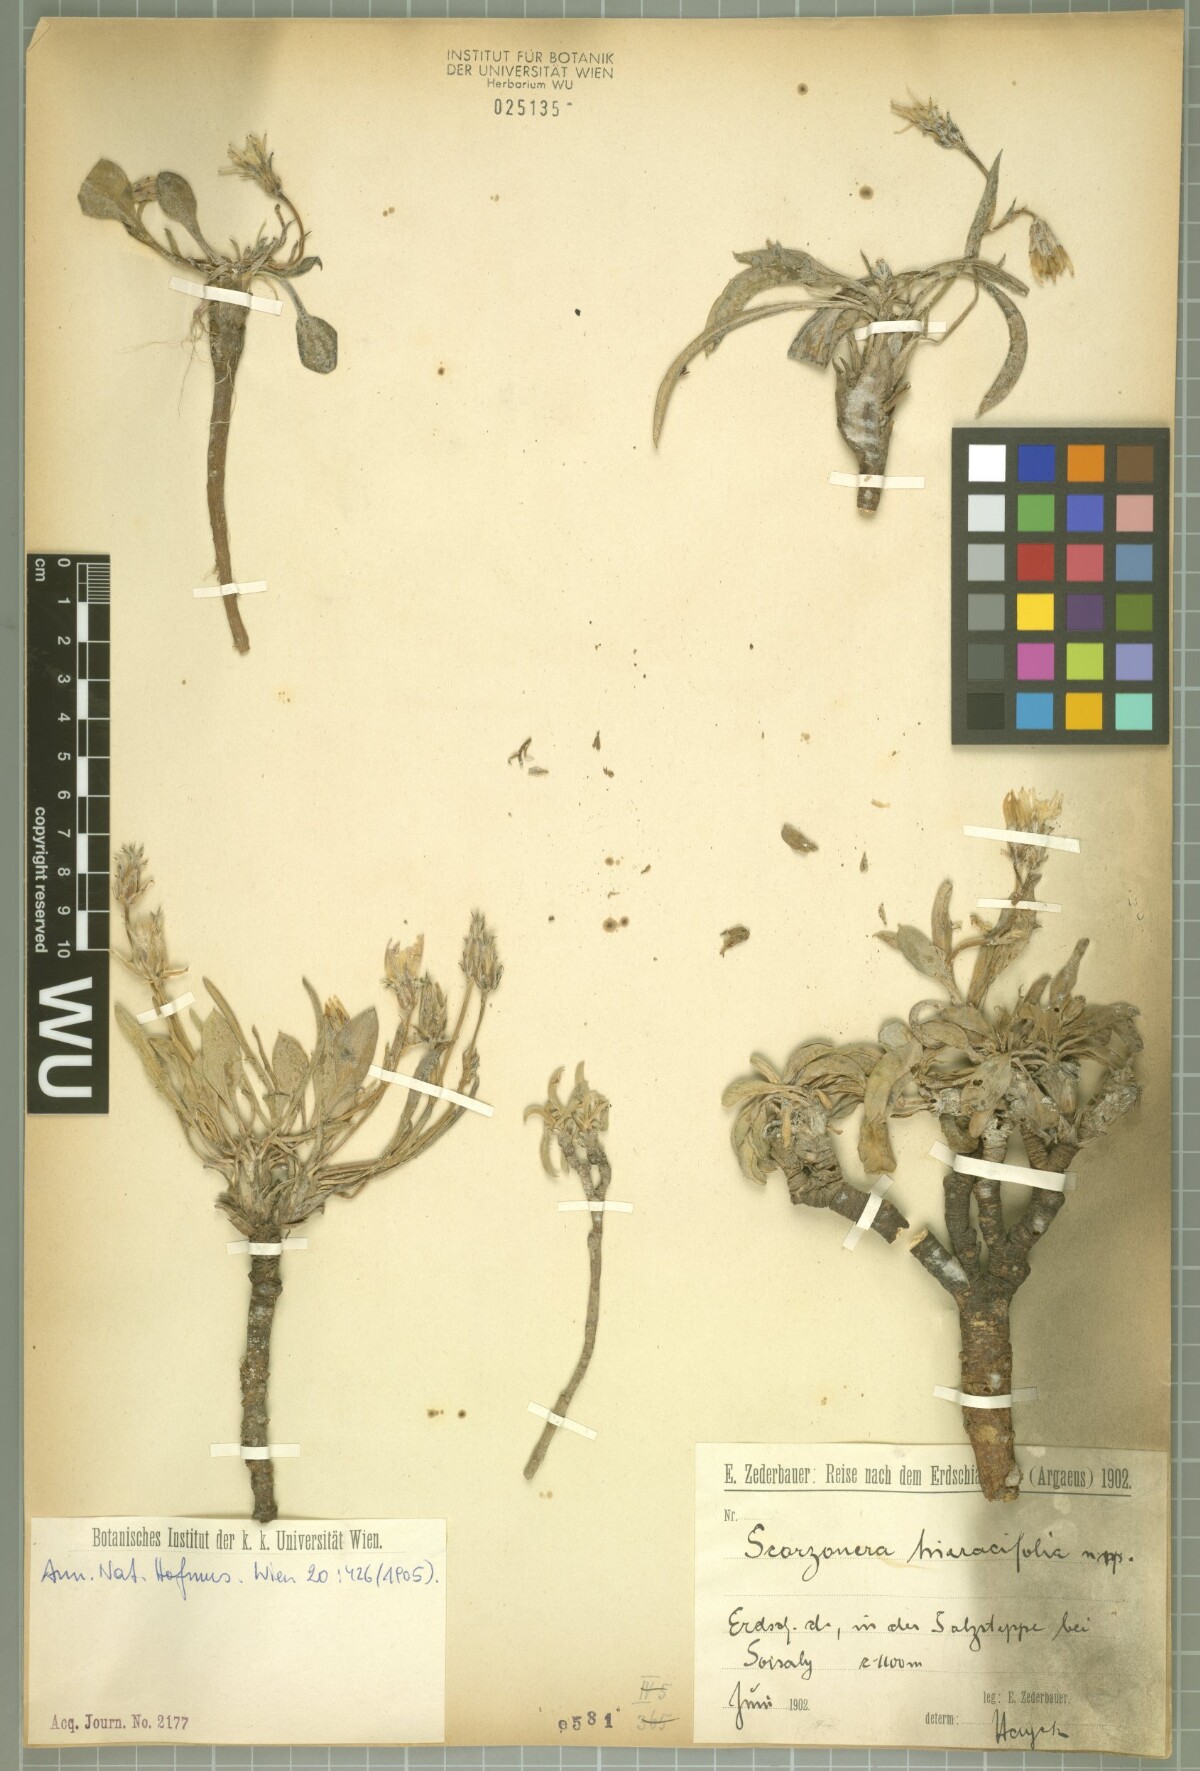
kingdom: Plantae
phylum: Tracheophyta
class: Magnoliopsida
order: Asterales
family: Asteraceae
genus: Scorzonera
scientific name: Scorzonera hieraciifolia
